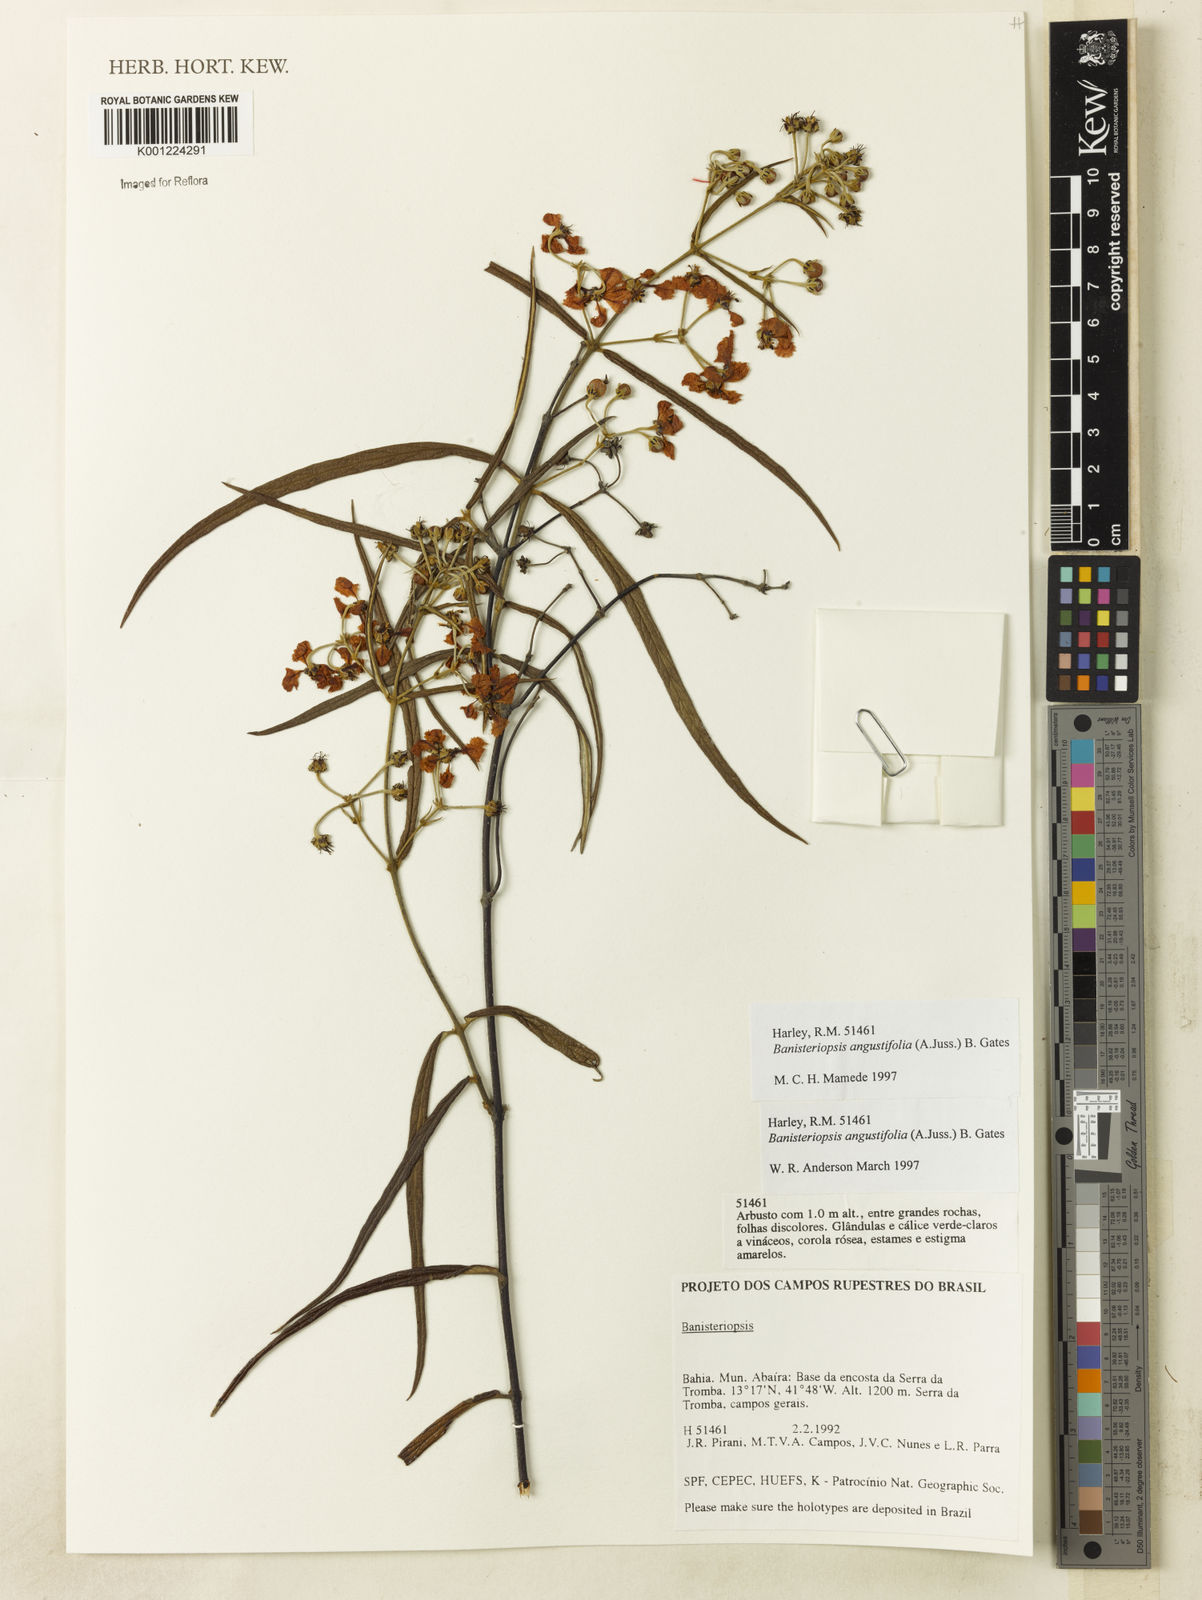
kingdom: Plantae
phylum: Tracheophyta
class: Magnoliopsida
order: Malpighiales
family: Malpighiaceae
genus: Banisteriopsis
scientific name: Banisteriopsis angustifolia
